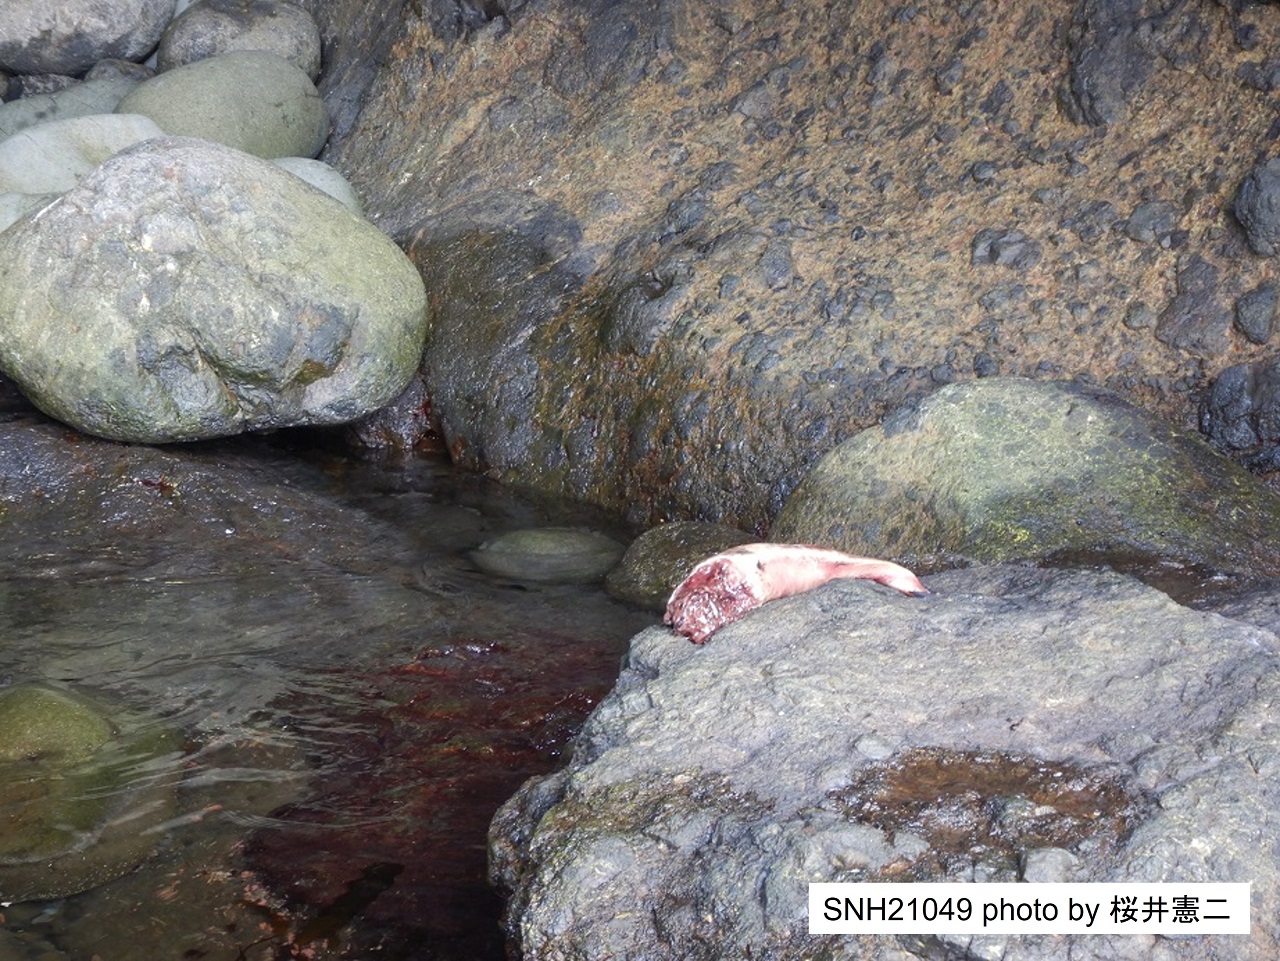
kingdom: Animalia
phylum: Chordata
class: Mammalia
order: Cetacea
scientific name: Cetacea
